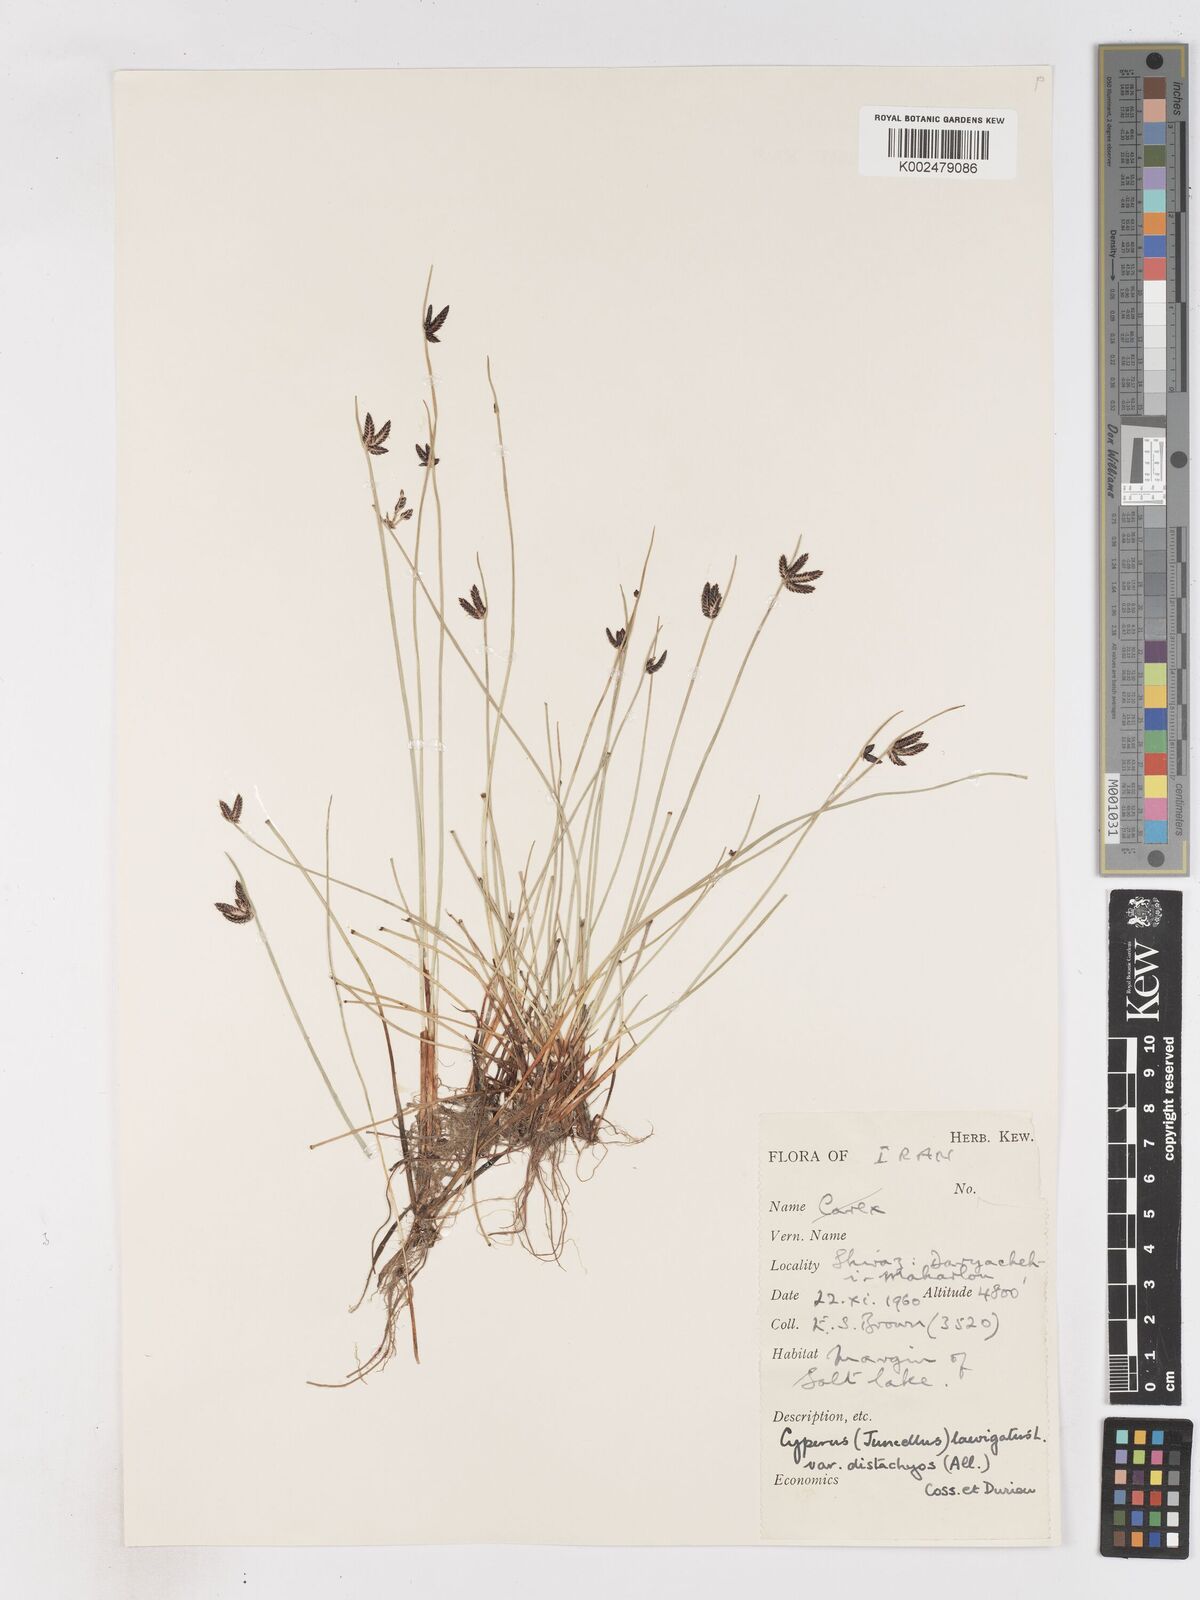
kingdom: Plantae
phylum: Tracheophyta
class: Liliopsida
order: Poales
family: Cyperaceae
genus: Cyperus
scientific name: Cyperus laevigatus
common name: Smooth flat sedge
